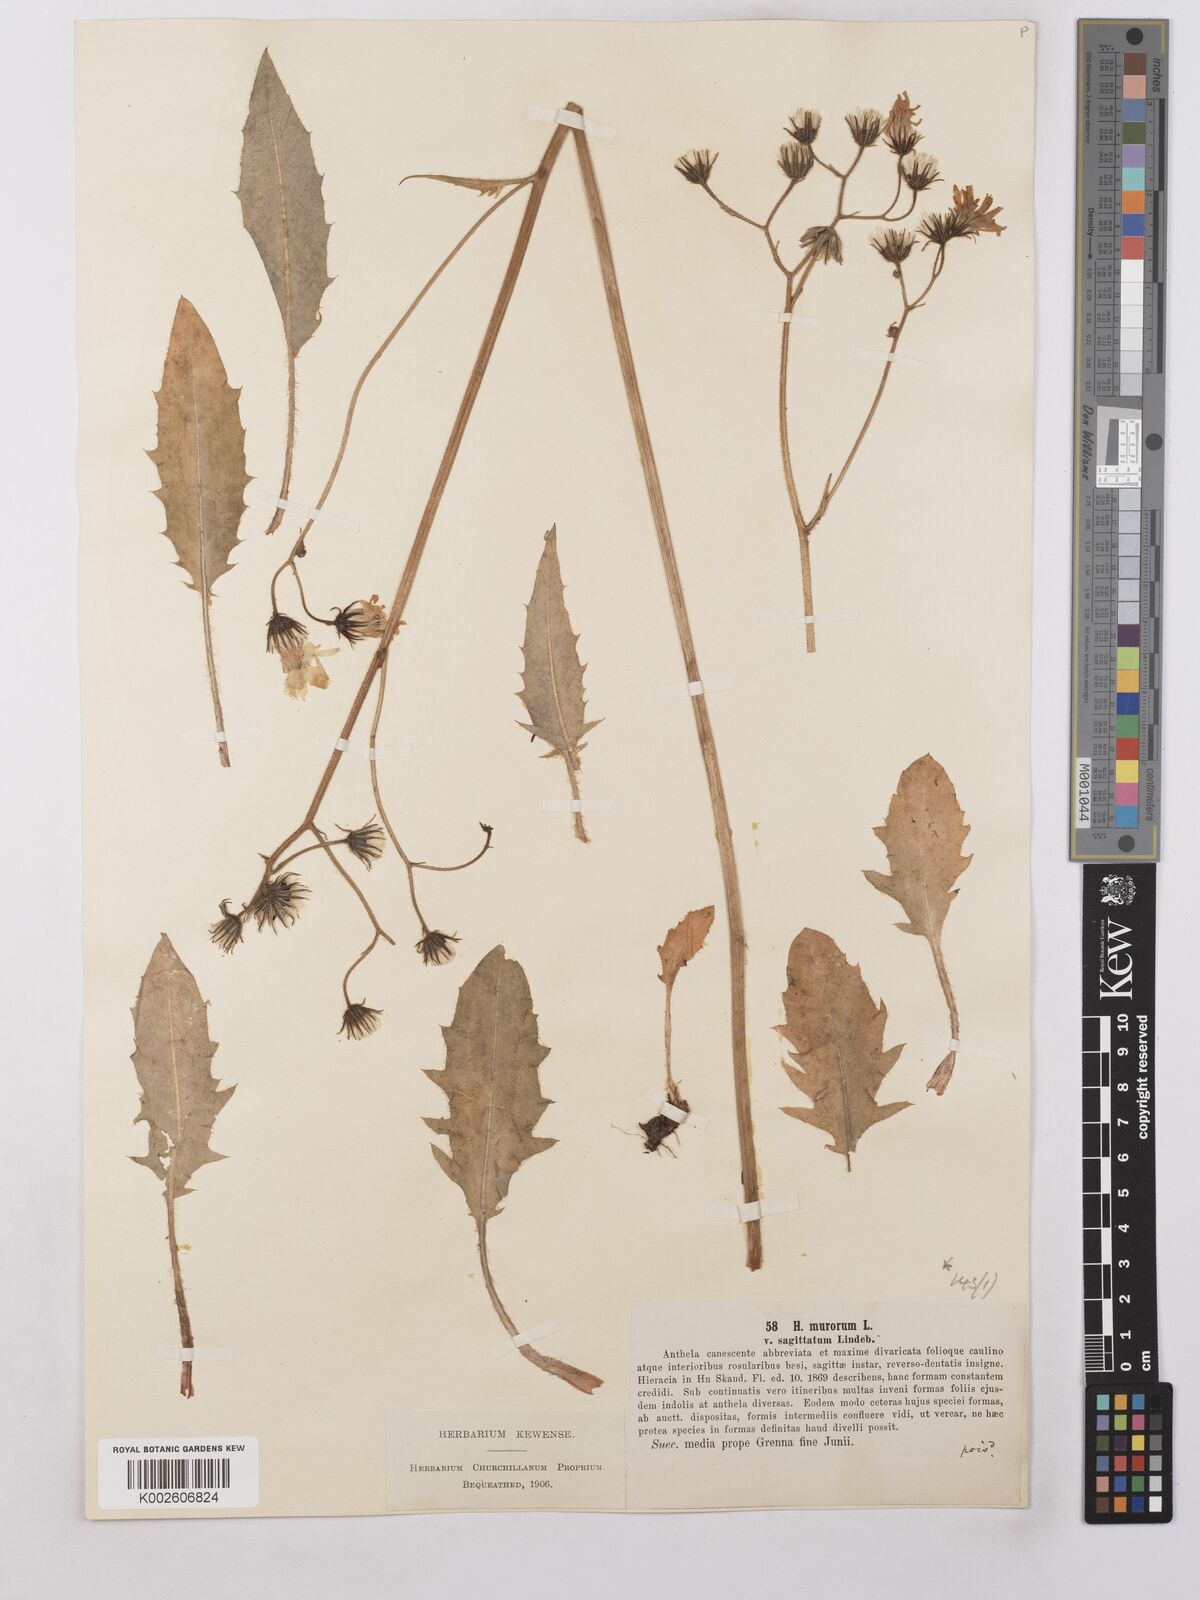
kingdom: Plantae
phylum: Tracheophyta
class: Magnoliopsida
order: Asterales
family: Asteraceae
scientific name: Asteraceae
